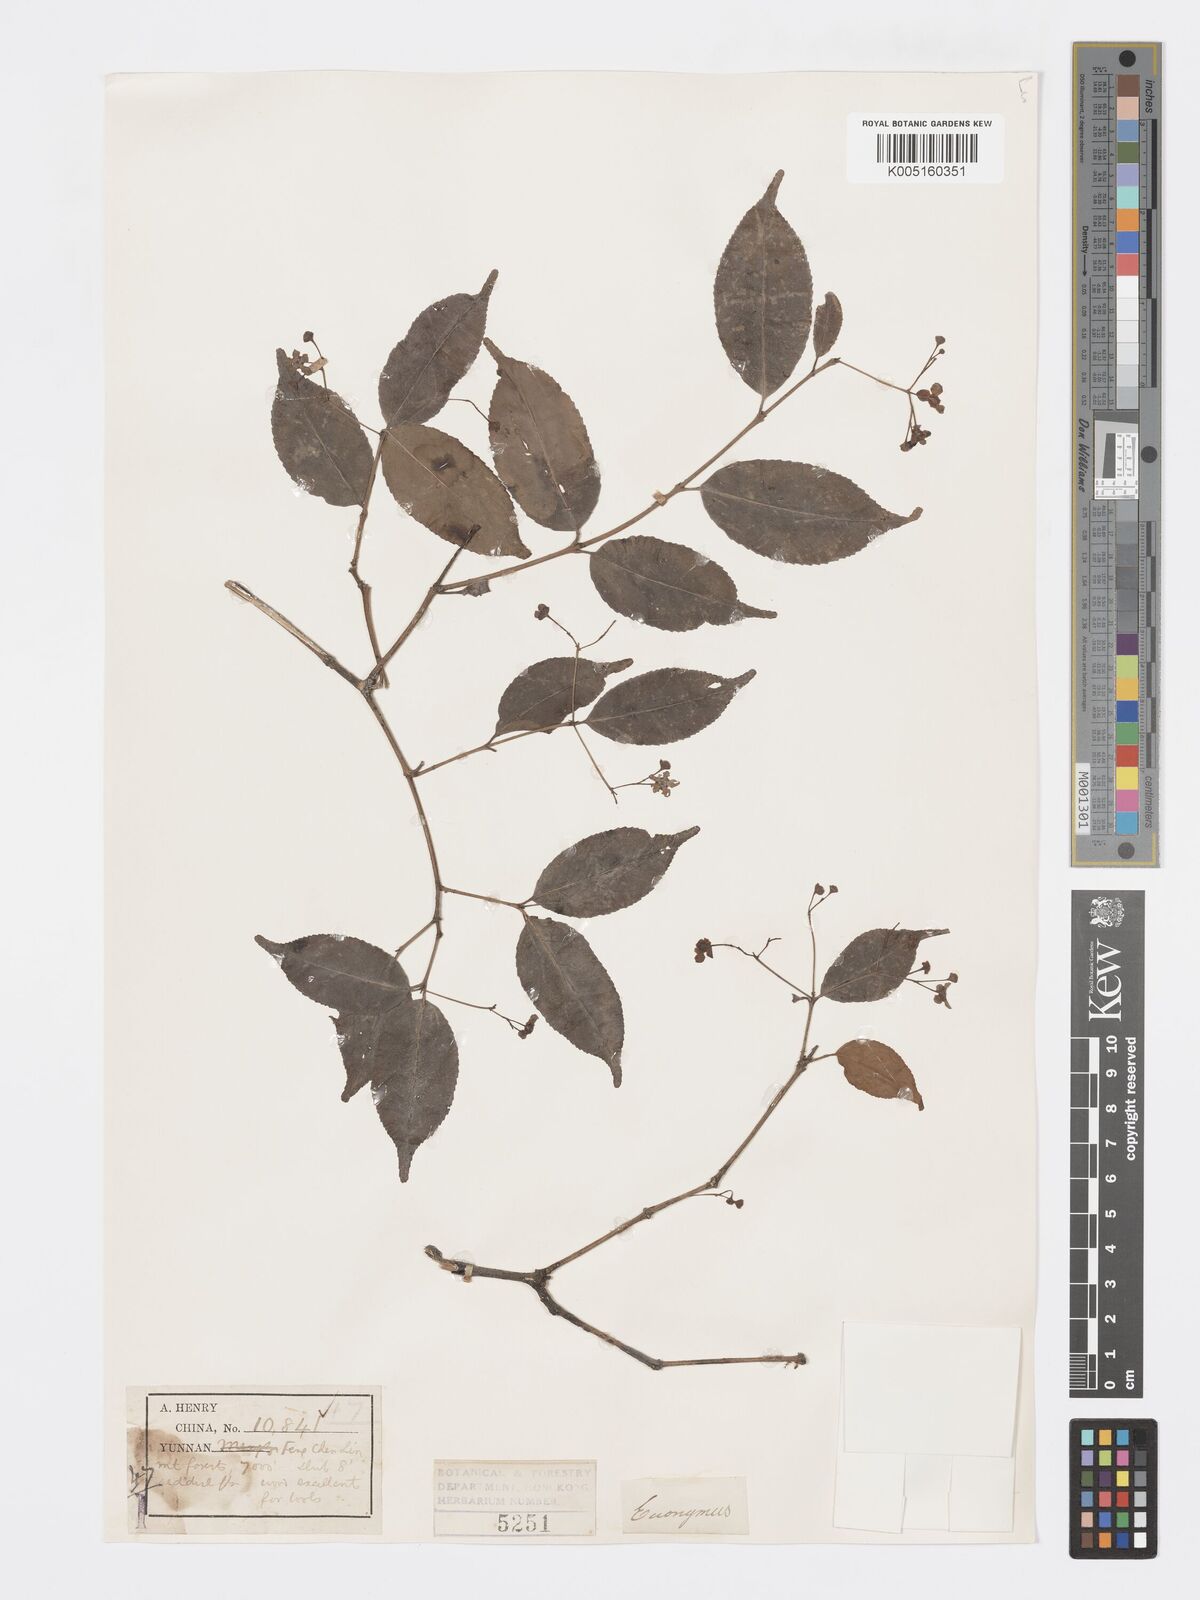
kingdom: Plantae
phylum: Tracheophyta
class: Magnoliopsida
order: Celastrales
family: Celastraceae
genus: Euonymus
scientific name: Euonymus
